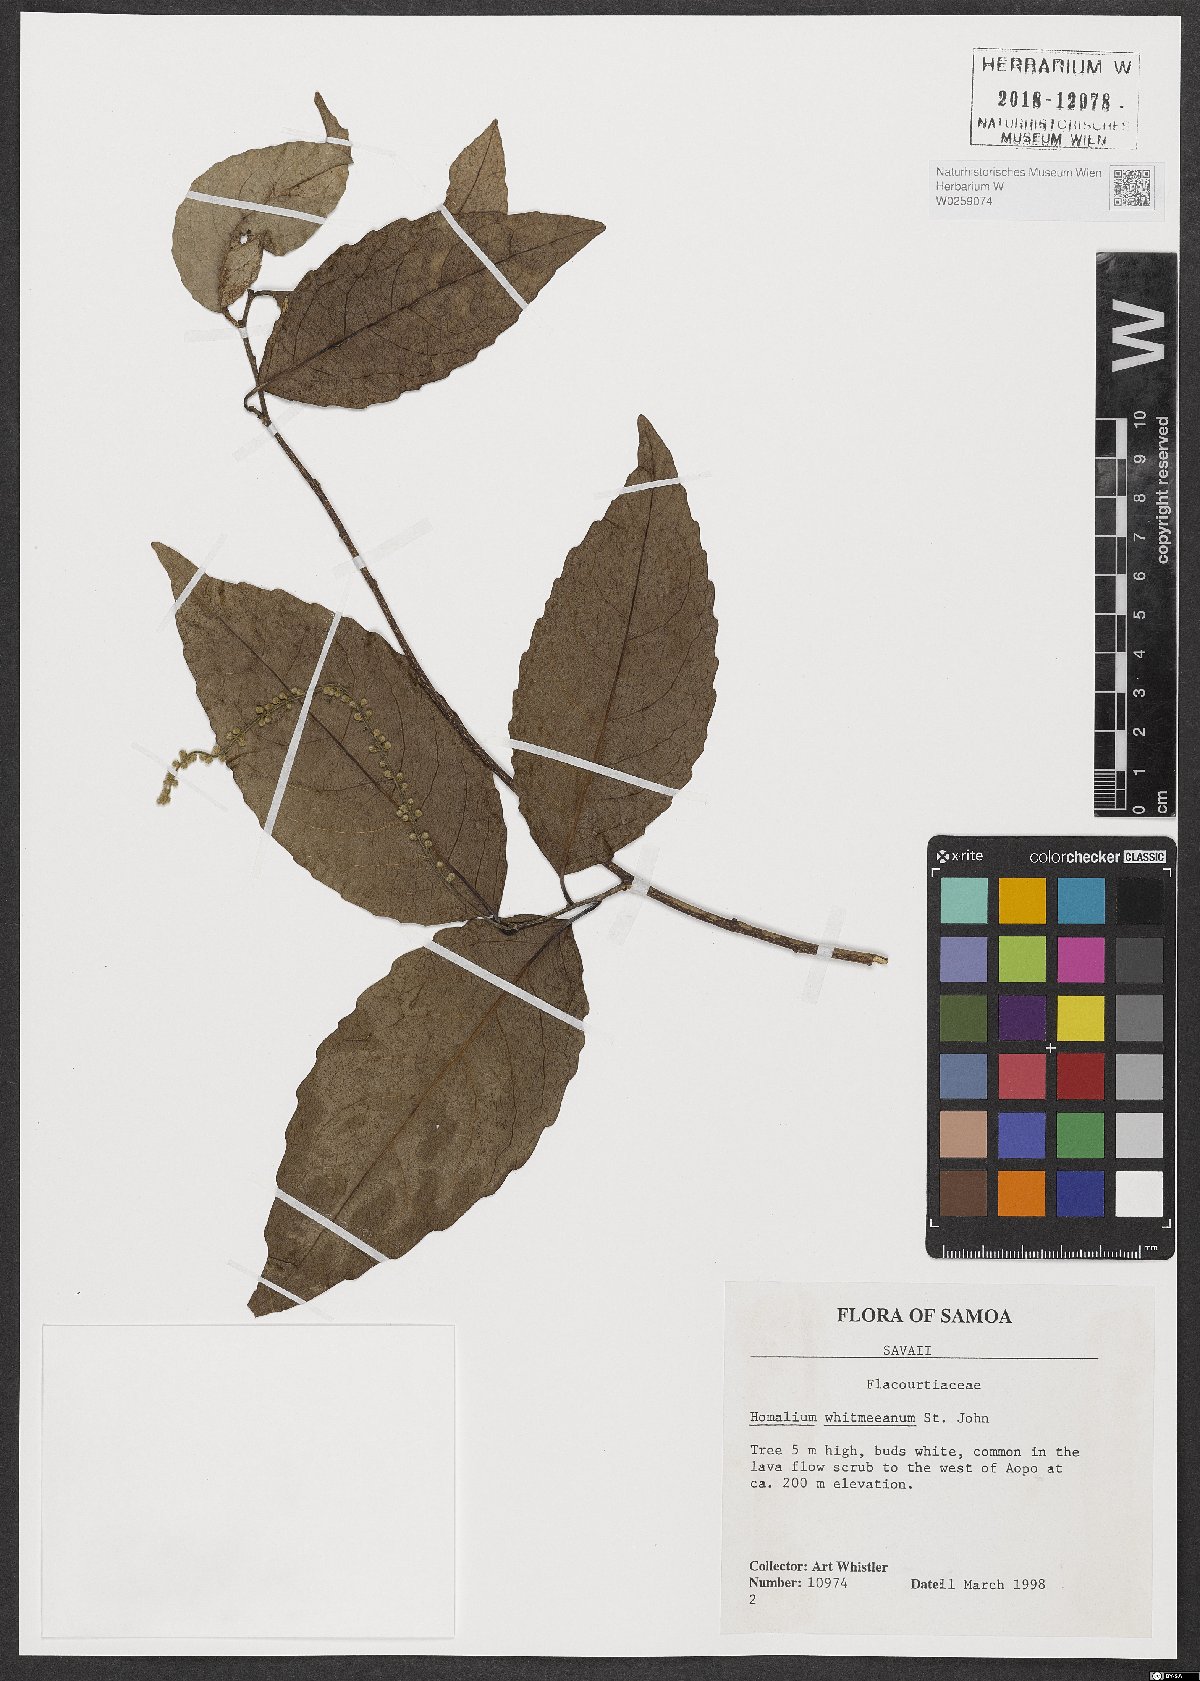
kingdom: Plantae
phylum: Tracheophyta
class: Magnoliopsida
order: Malpighiales
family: Salicaceae
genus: Homalium
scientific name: Homalium whitmeeanum
